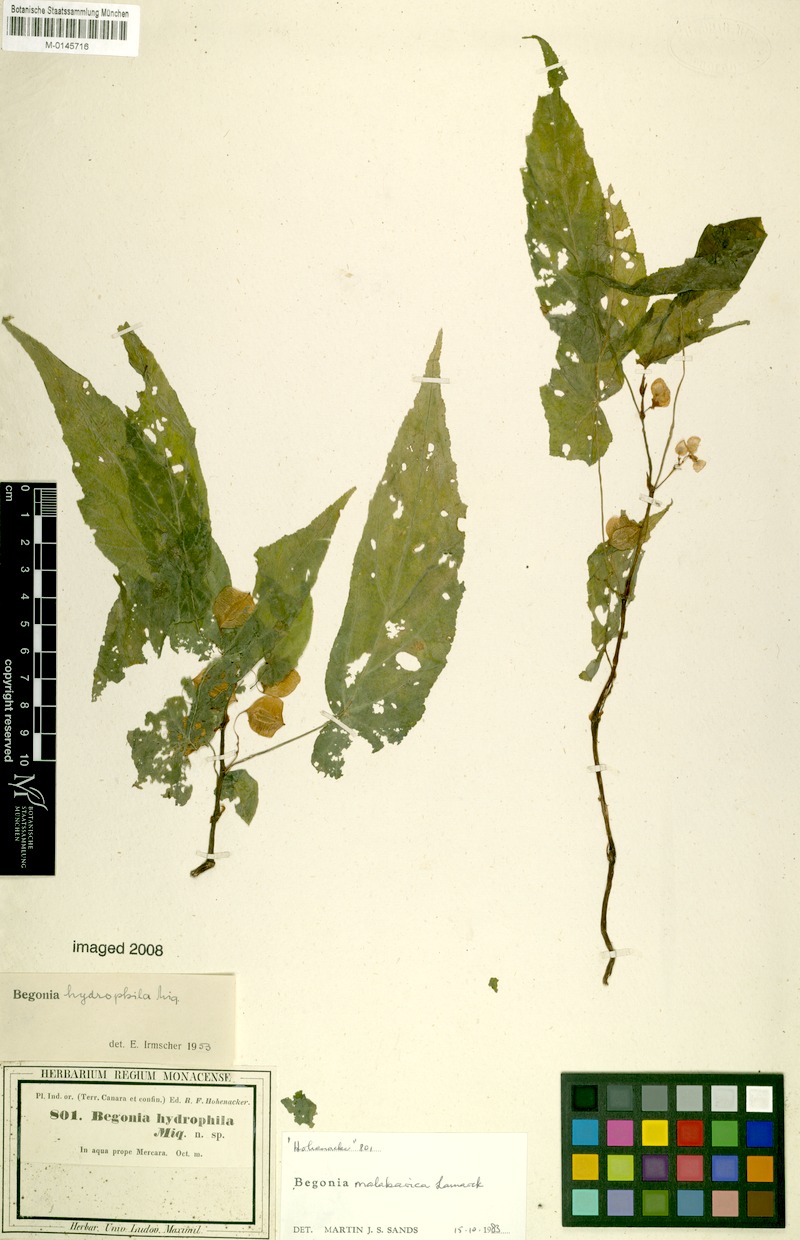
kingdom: Plantae
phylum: Tracheophyta
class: Magnoliopsida
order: Cucurbitales
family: Begoniaceae
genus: Begonia
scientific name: Begonia malabarica
